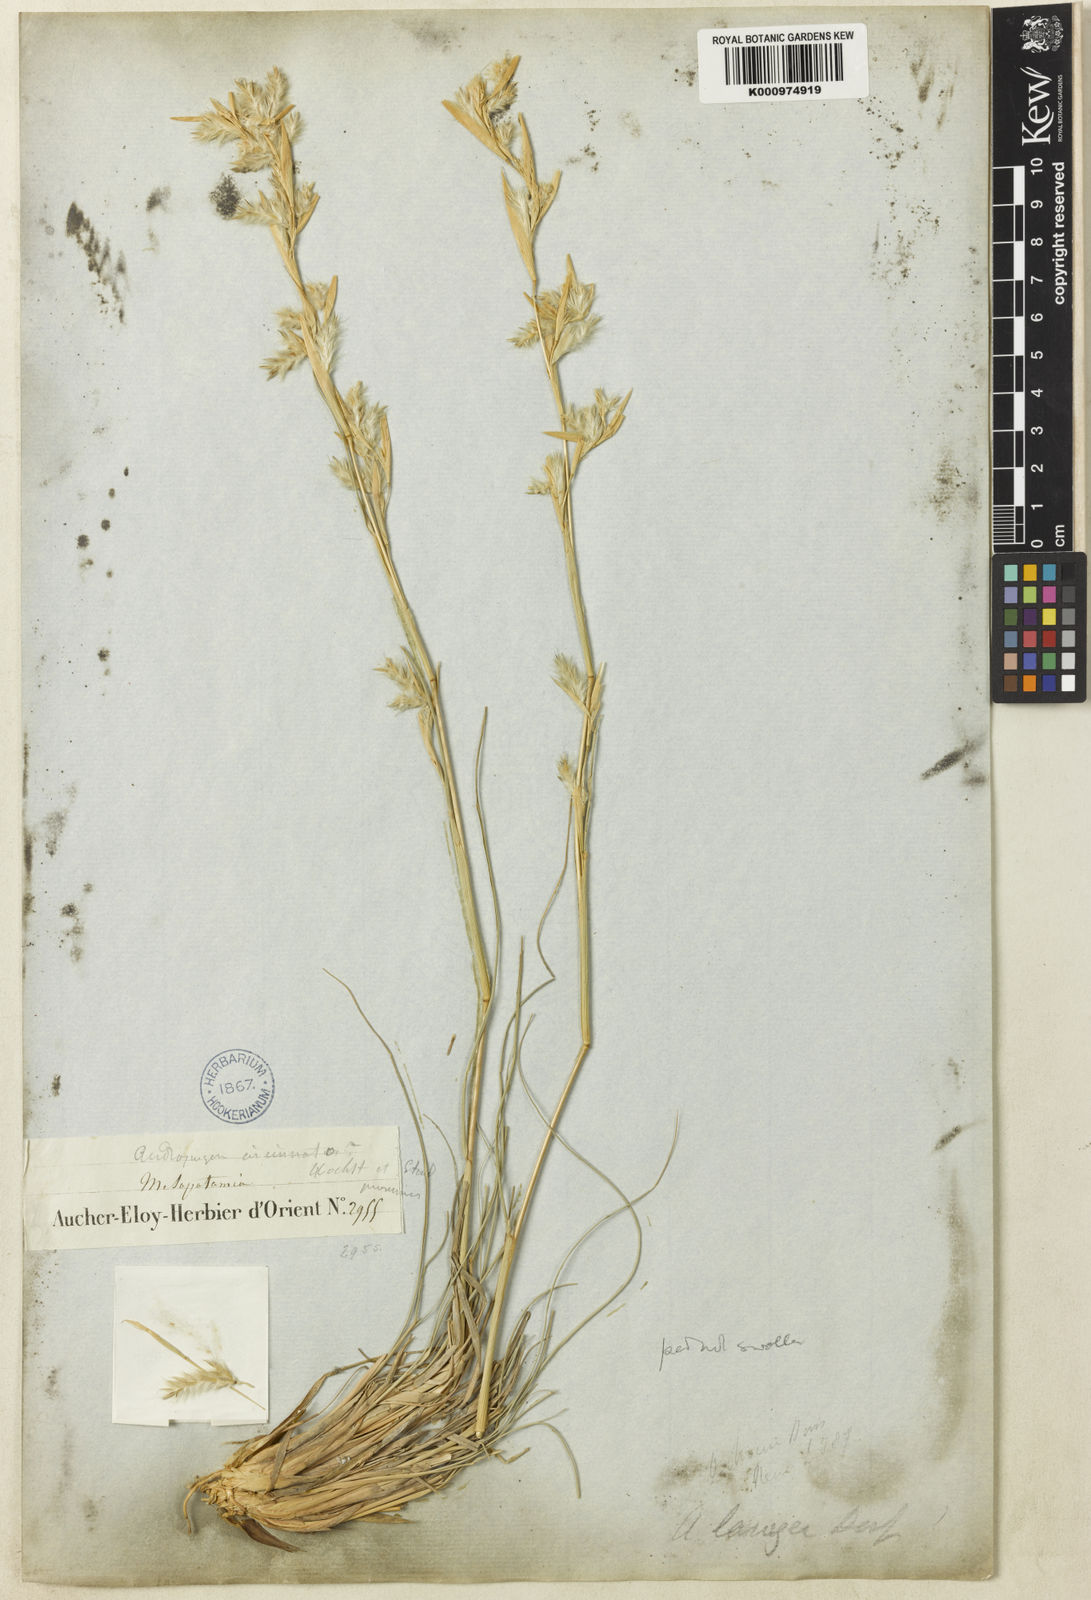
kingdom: Plantae
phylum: Tracheophyta
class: Liliopsida
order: Poales
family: Poaceae
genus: Cymbopogon
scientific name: Cymbopogon iwarancusa
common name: Iwarancusa grass
